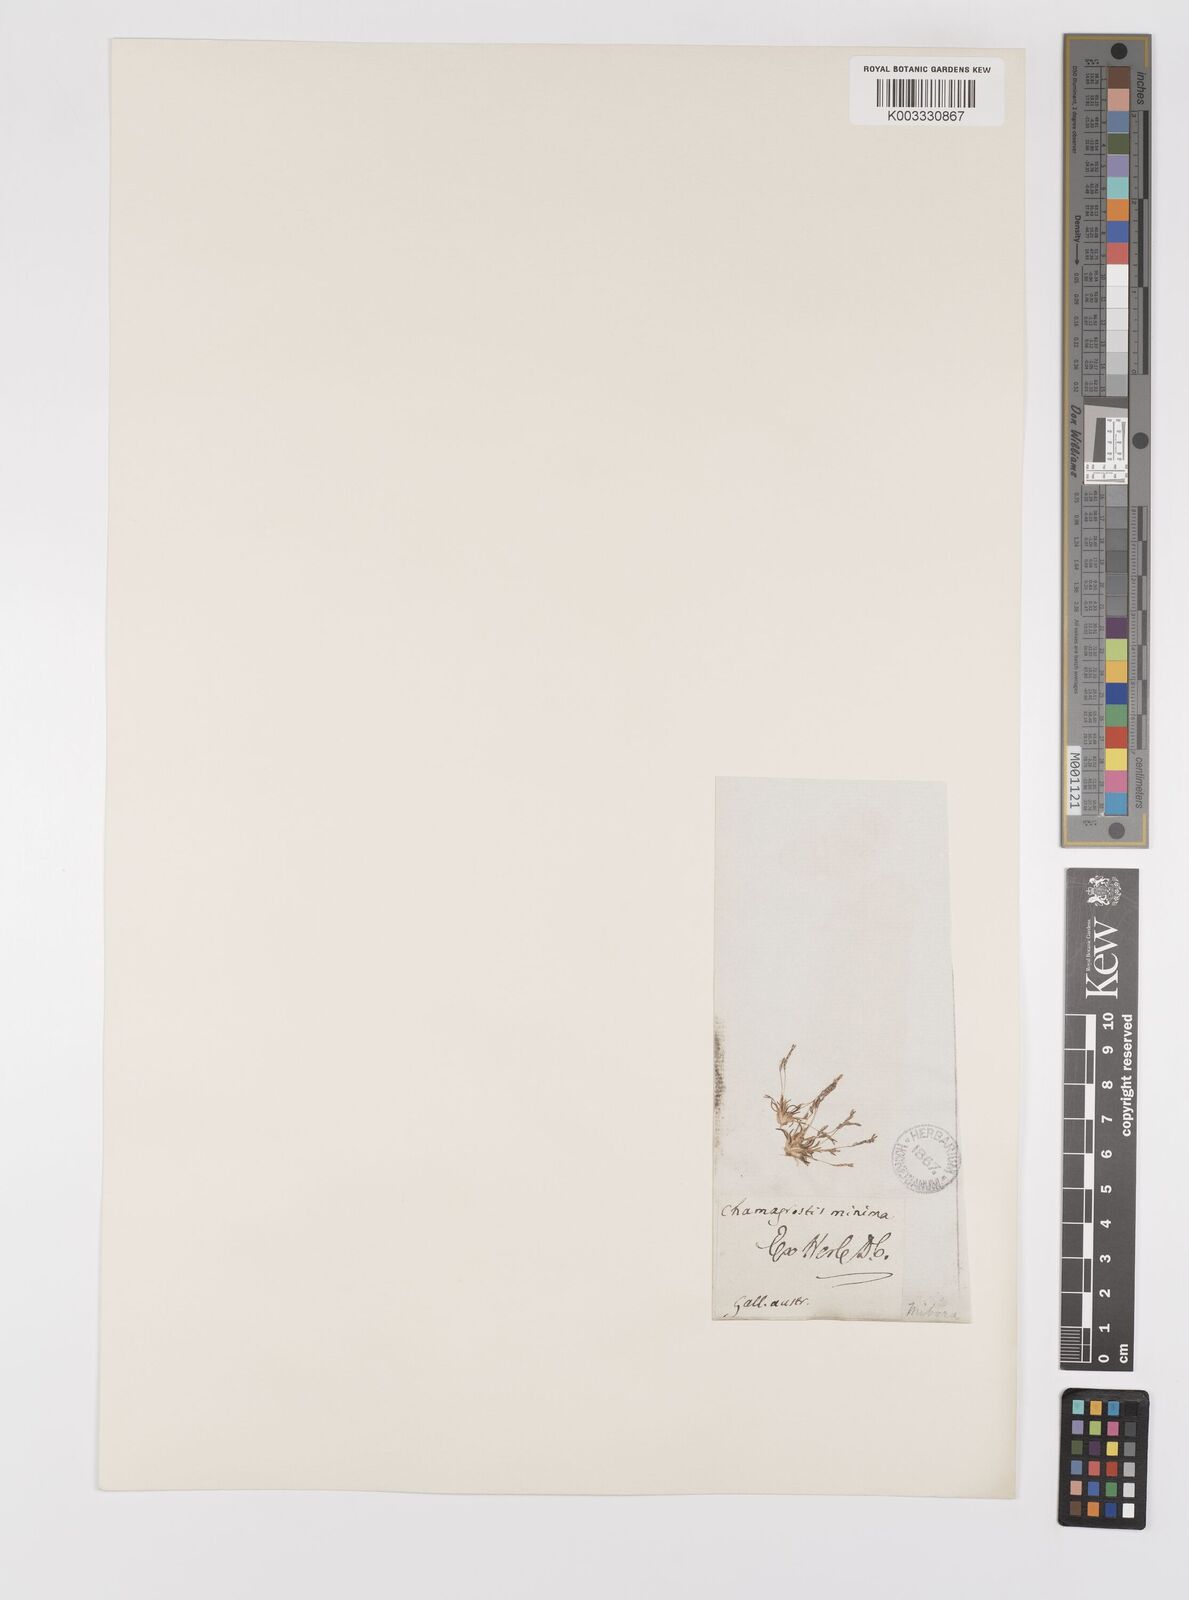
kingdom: Plantae
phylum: Tracheophyta
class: Liliopsida
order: Poales
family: Poaceae
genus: Mibora
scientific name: Mibora minima
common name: Early sand-grass
